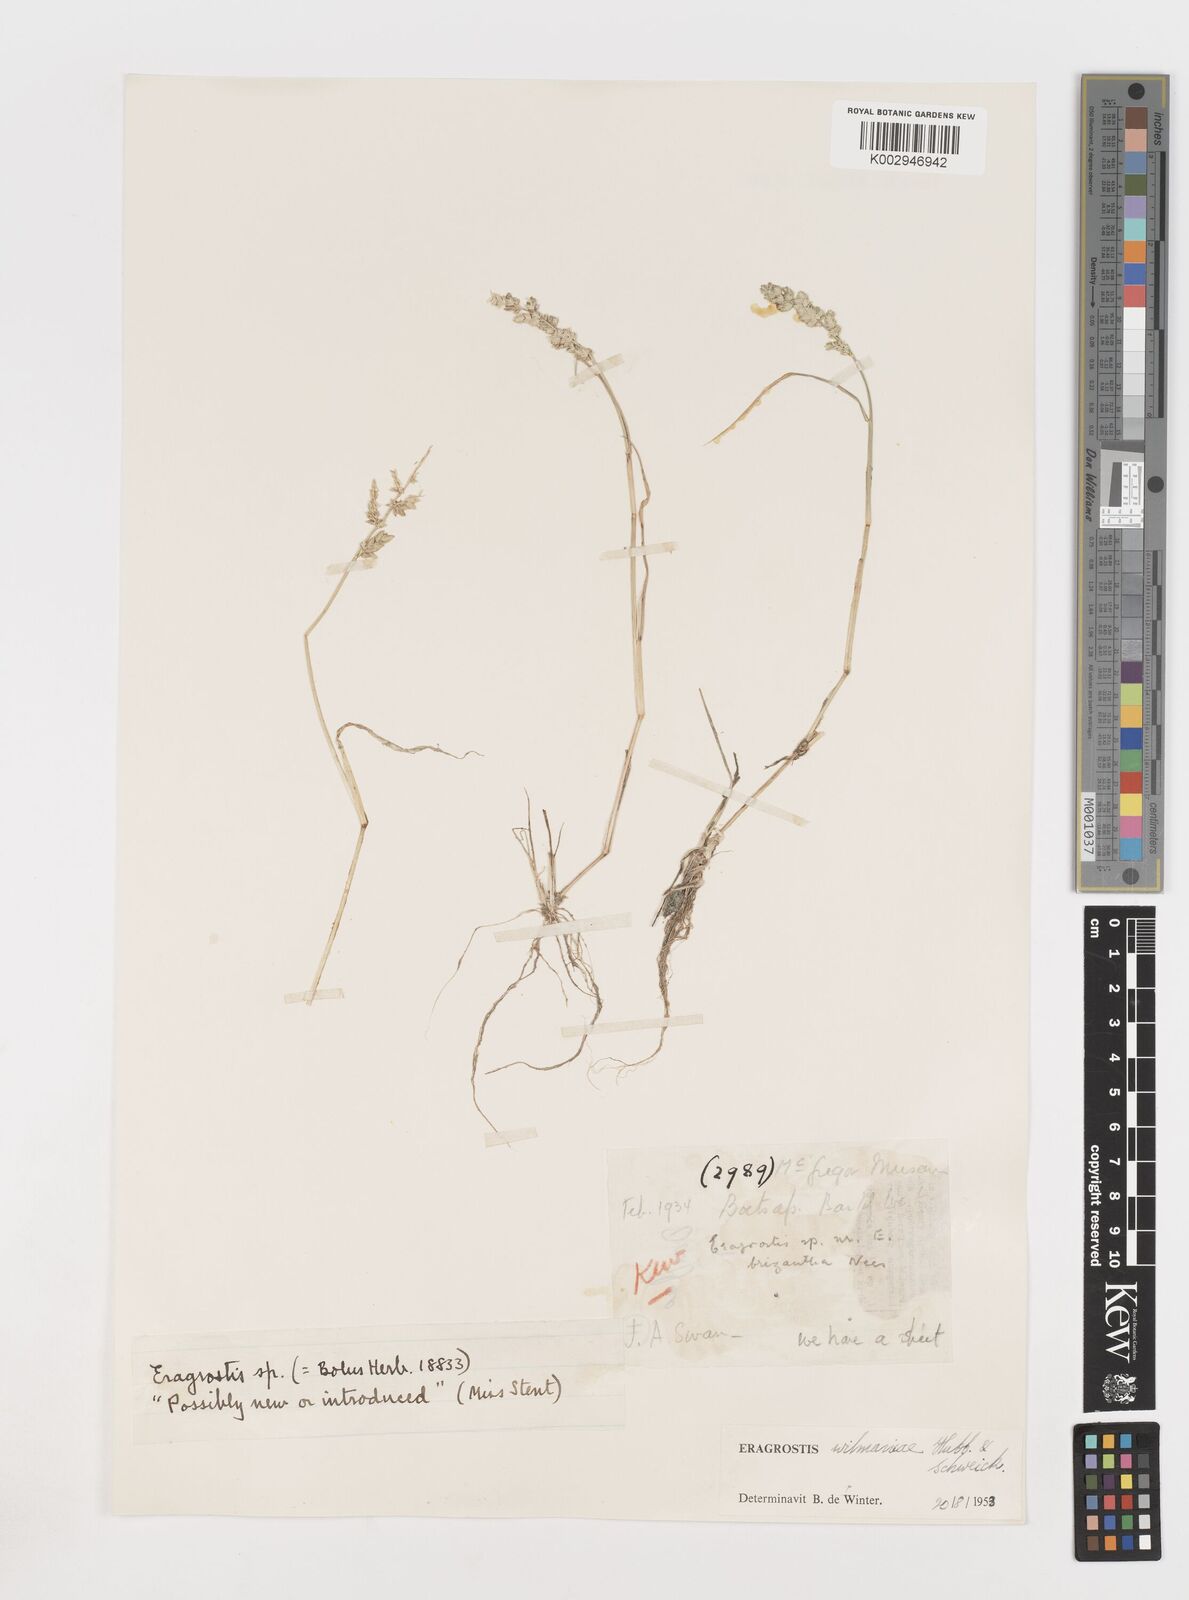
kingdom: Plantae
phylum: Tracheophyta
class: Liliopsida
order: Poales
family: Poaceae
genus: Eragrostis
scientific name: Eragrostis
